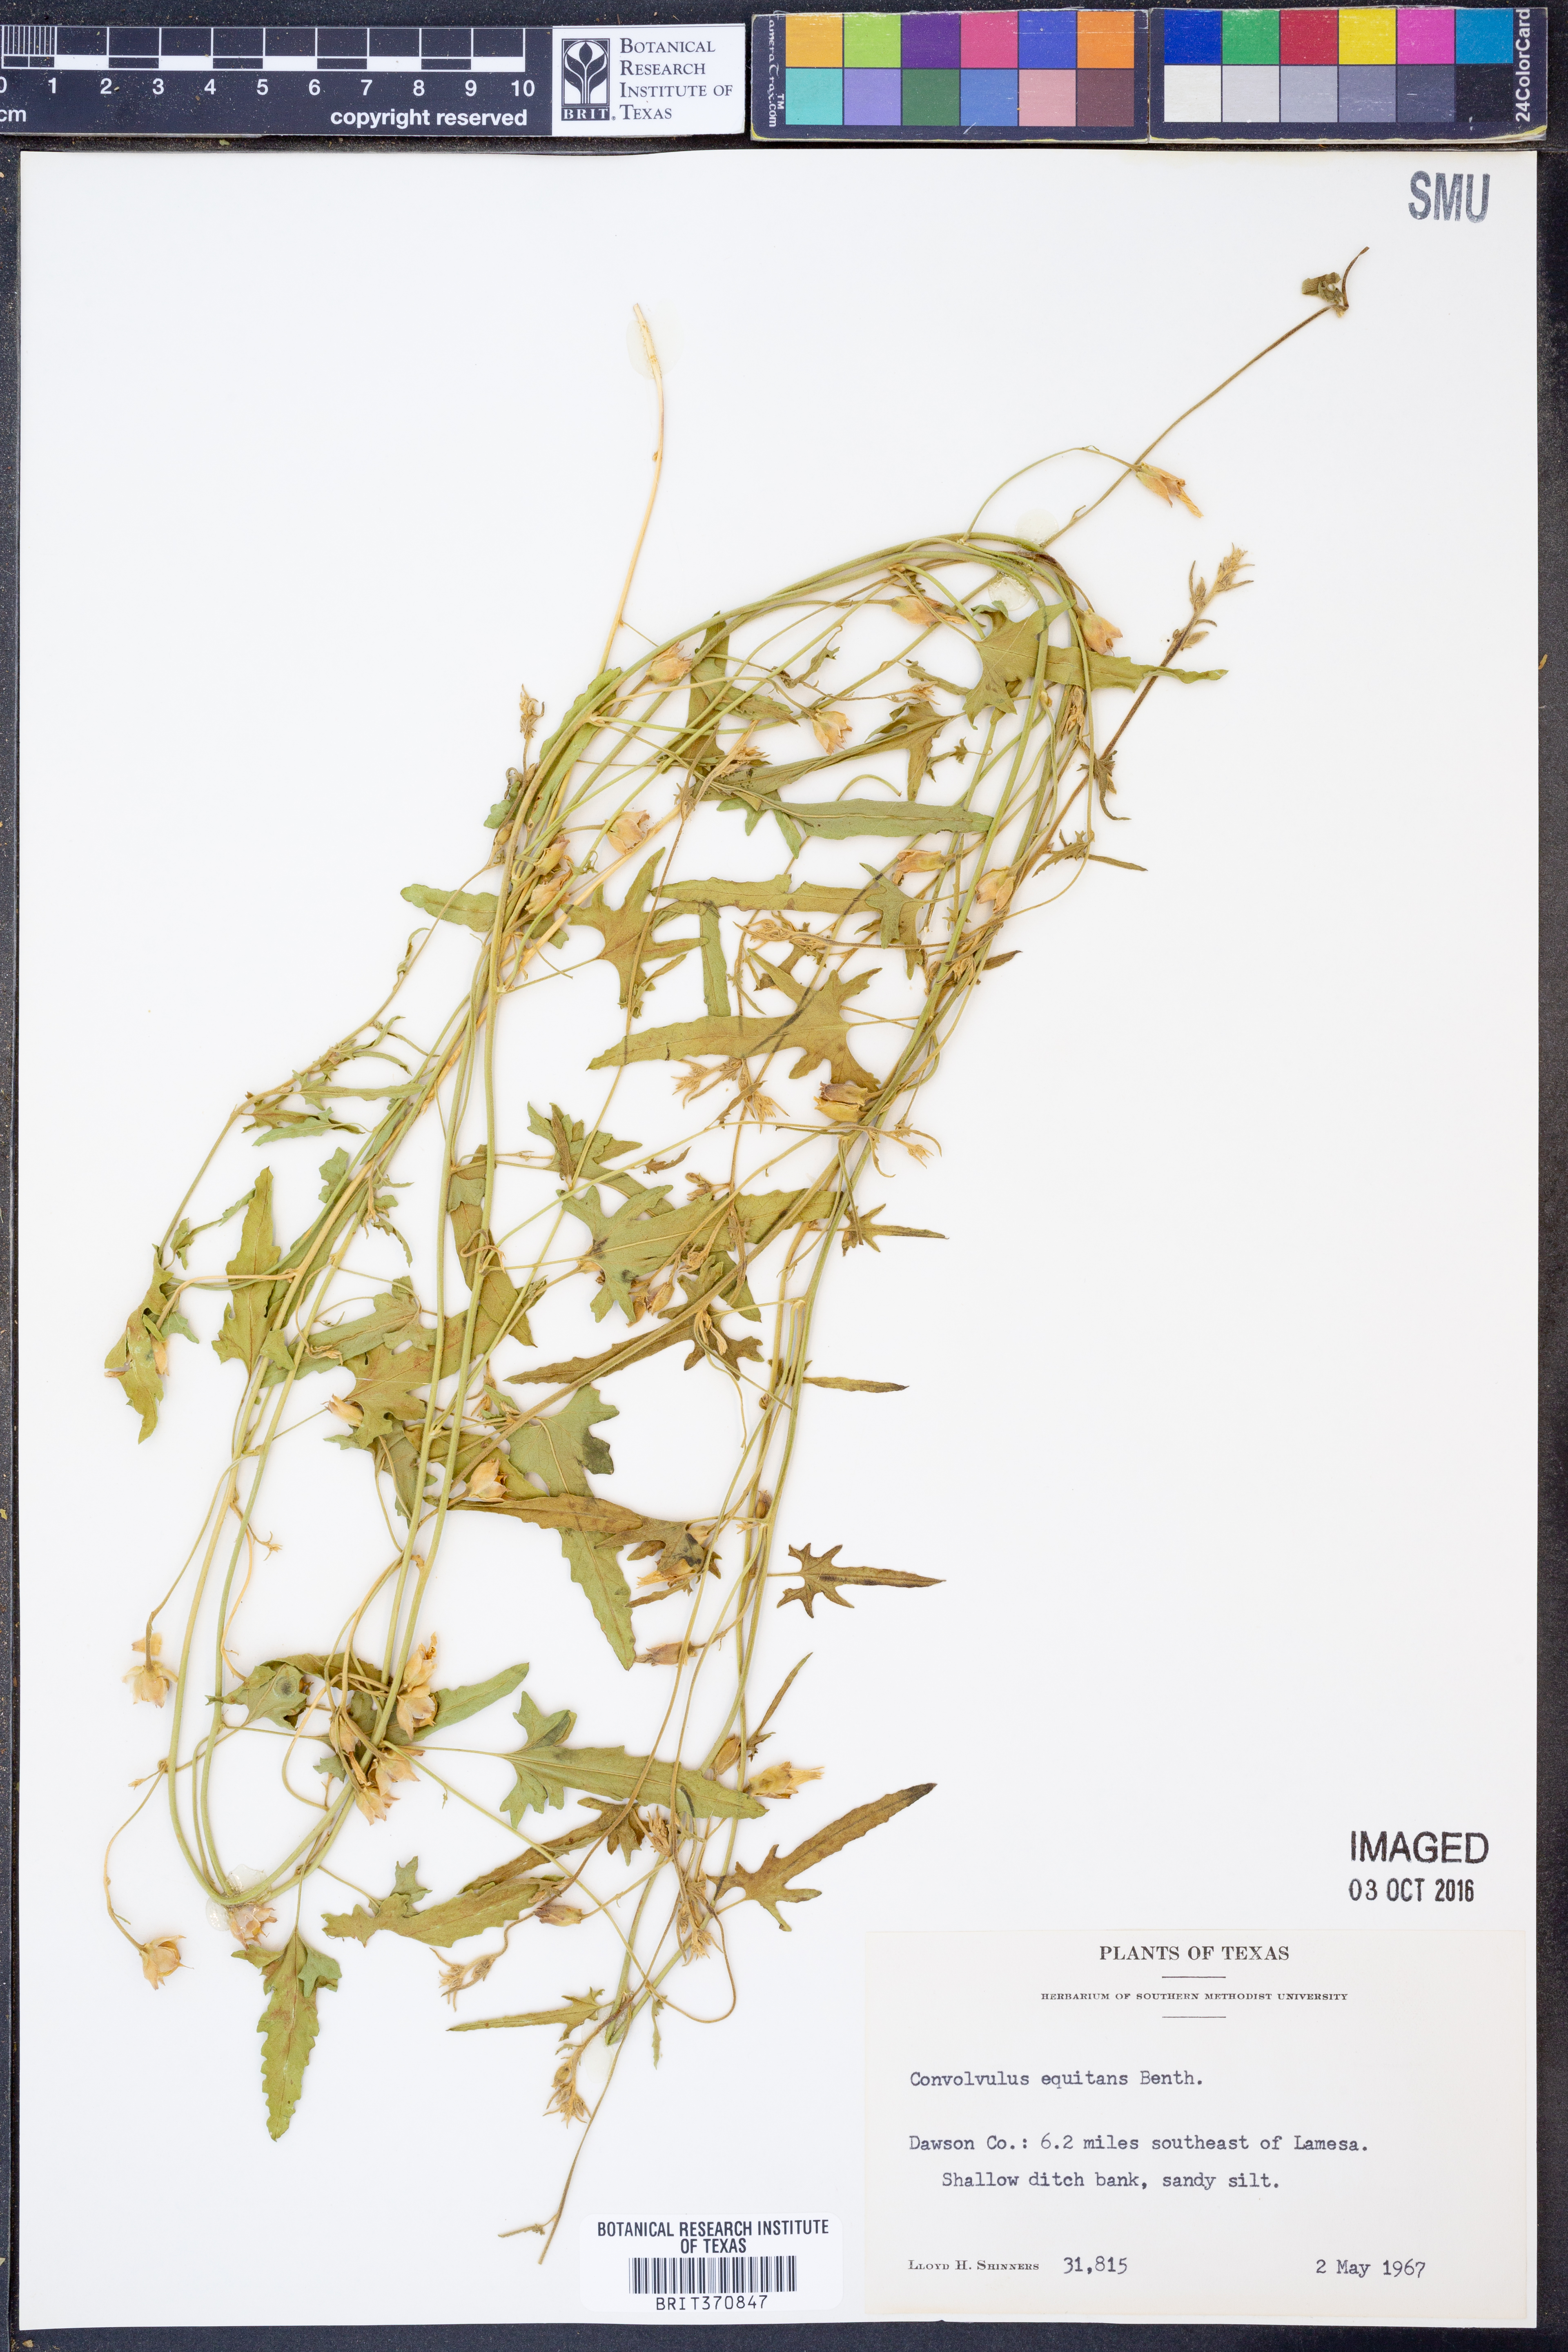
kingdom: Plantae
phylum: Tracheophyta
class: Magnoliopsida
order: Solanales
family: Convolvulaceae
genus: Convolvulus
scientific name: Convolvulus equitans
